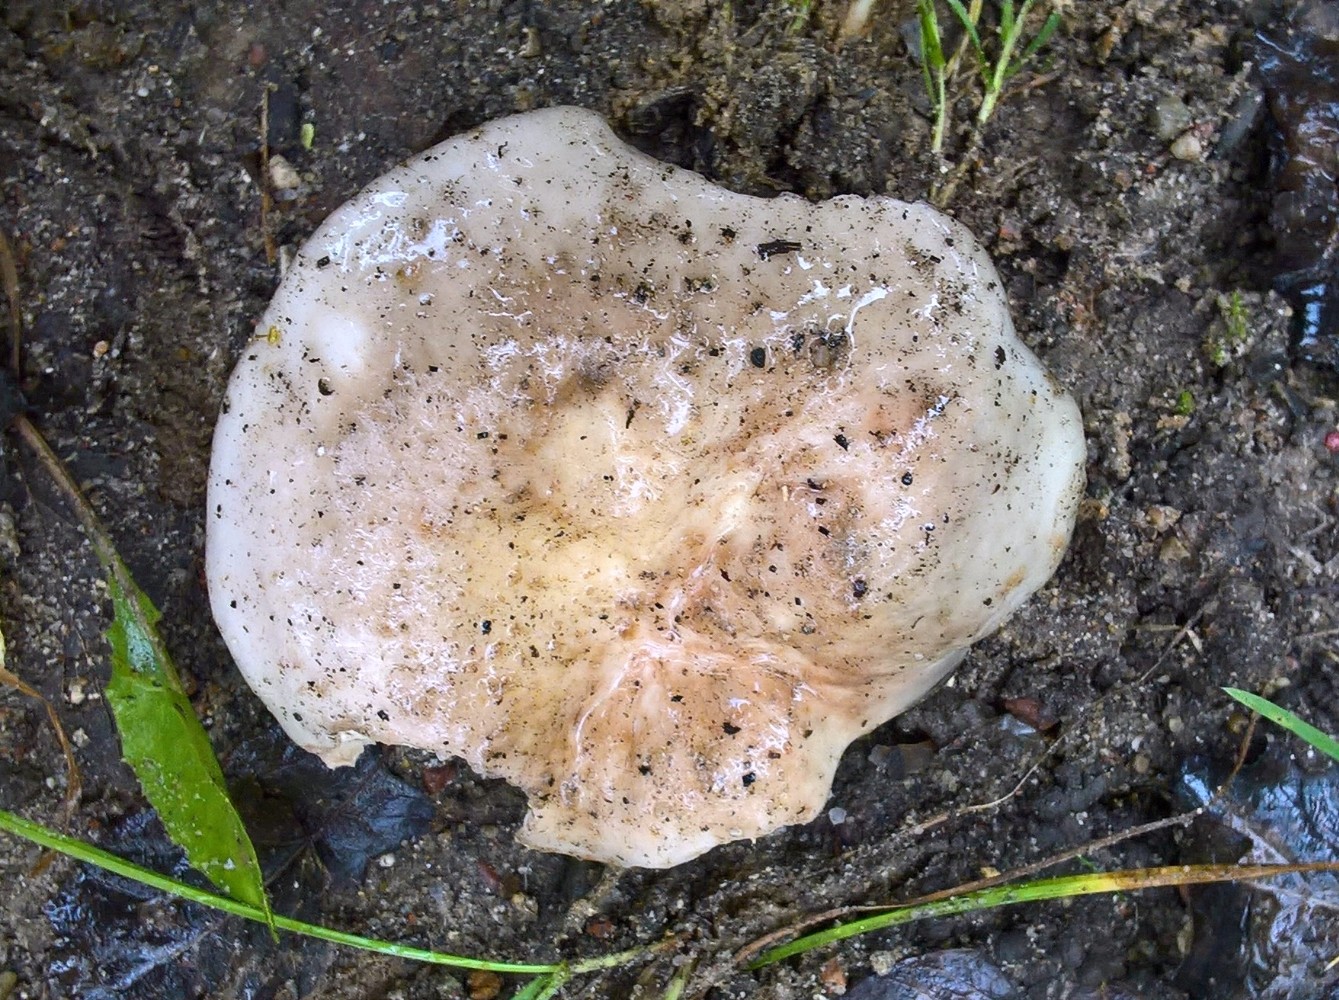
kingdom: Fungi
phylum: Basidiomycota
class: Agaricomycetes
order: Russulales
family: Russulaceae
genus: Russula
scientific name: Russula
